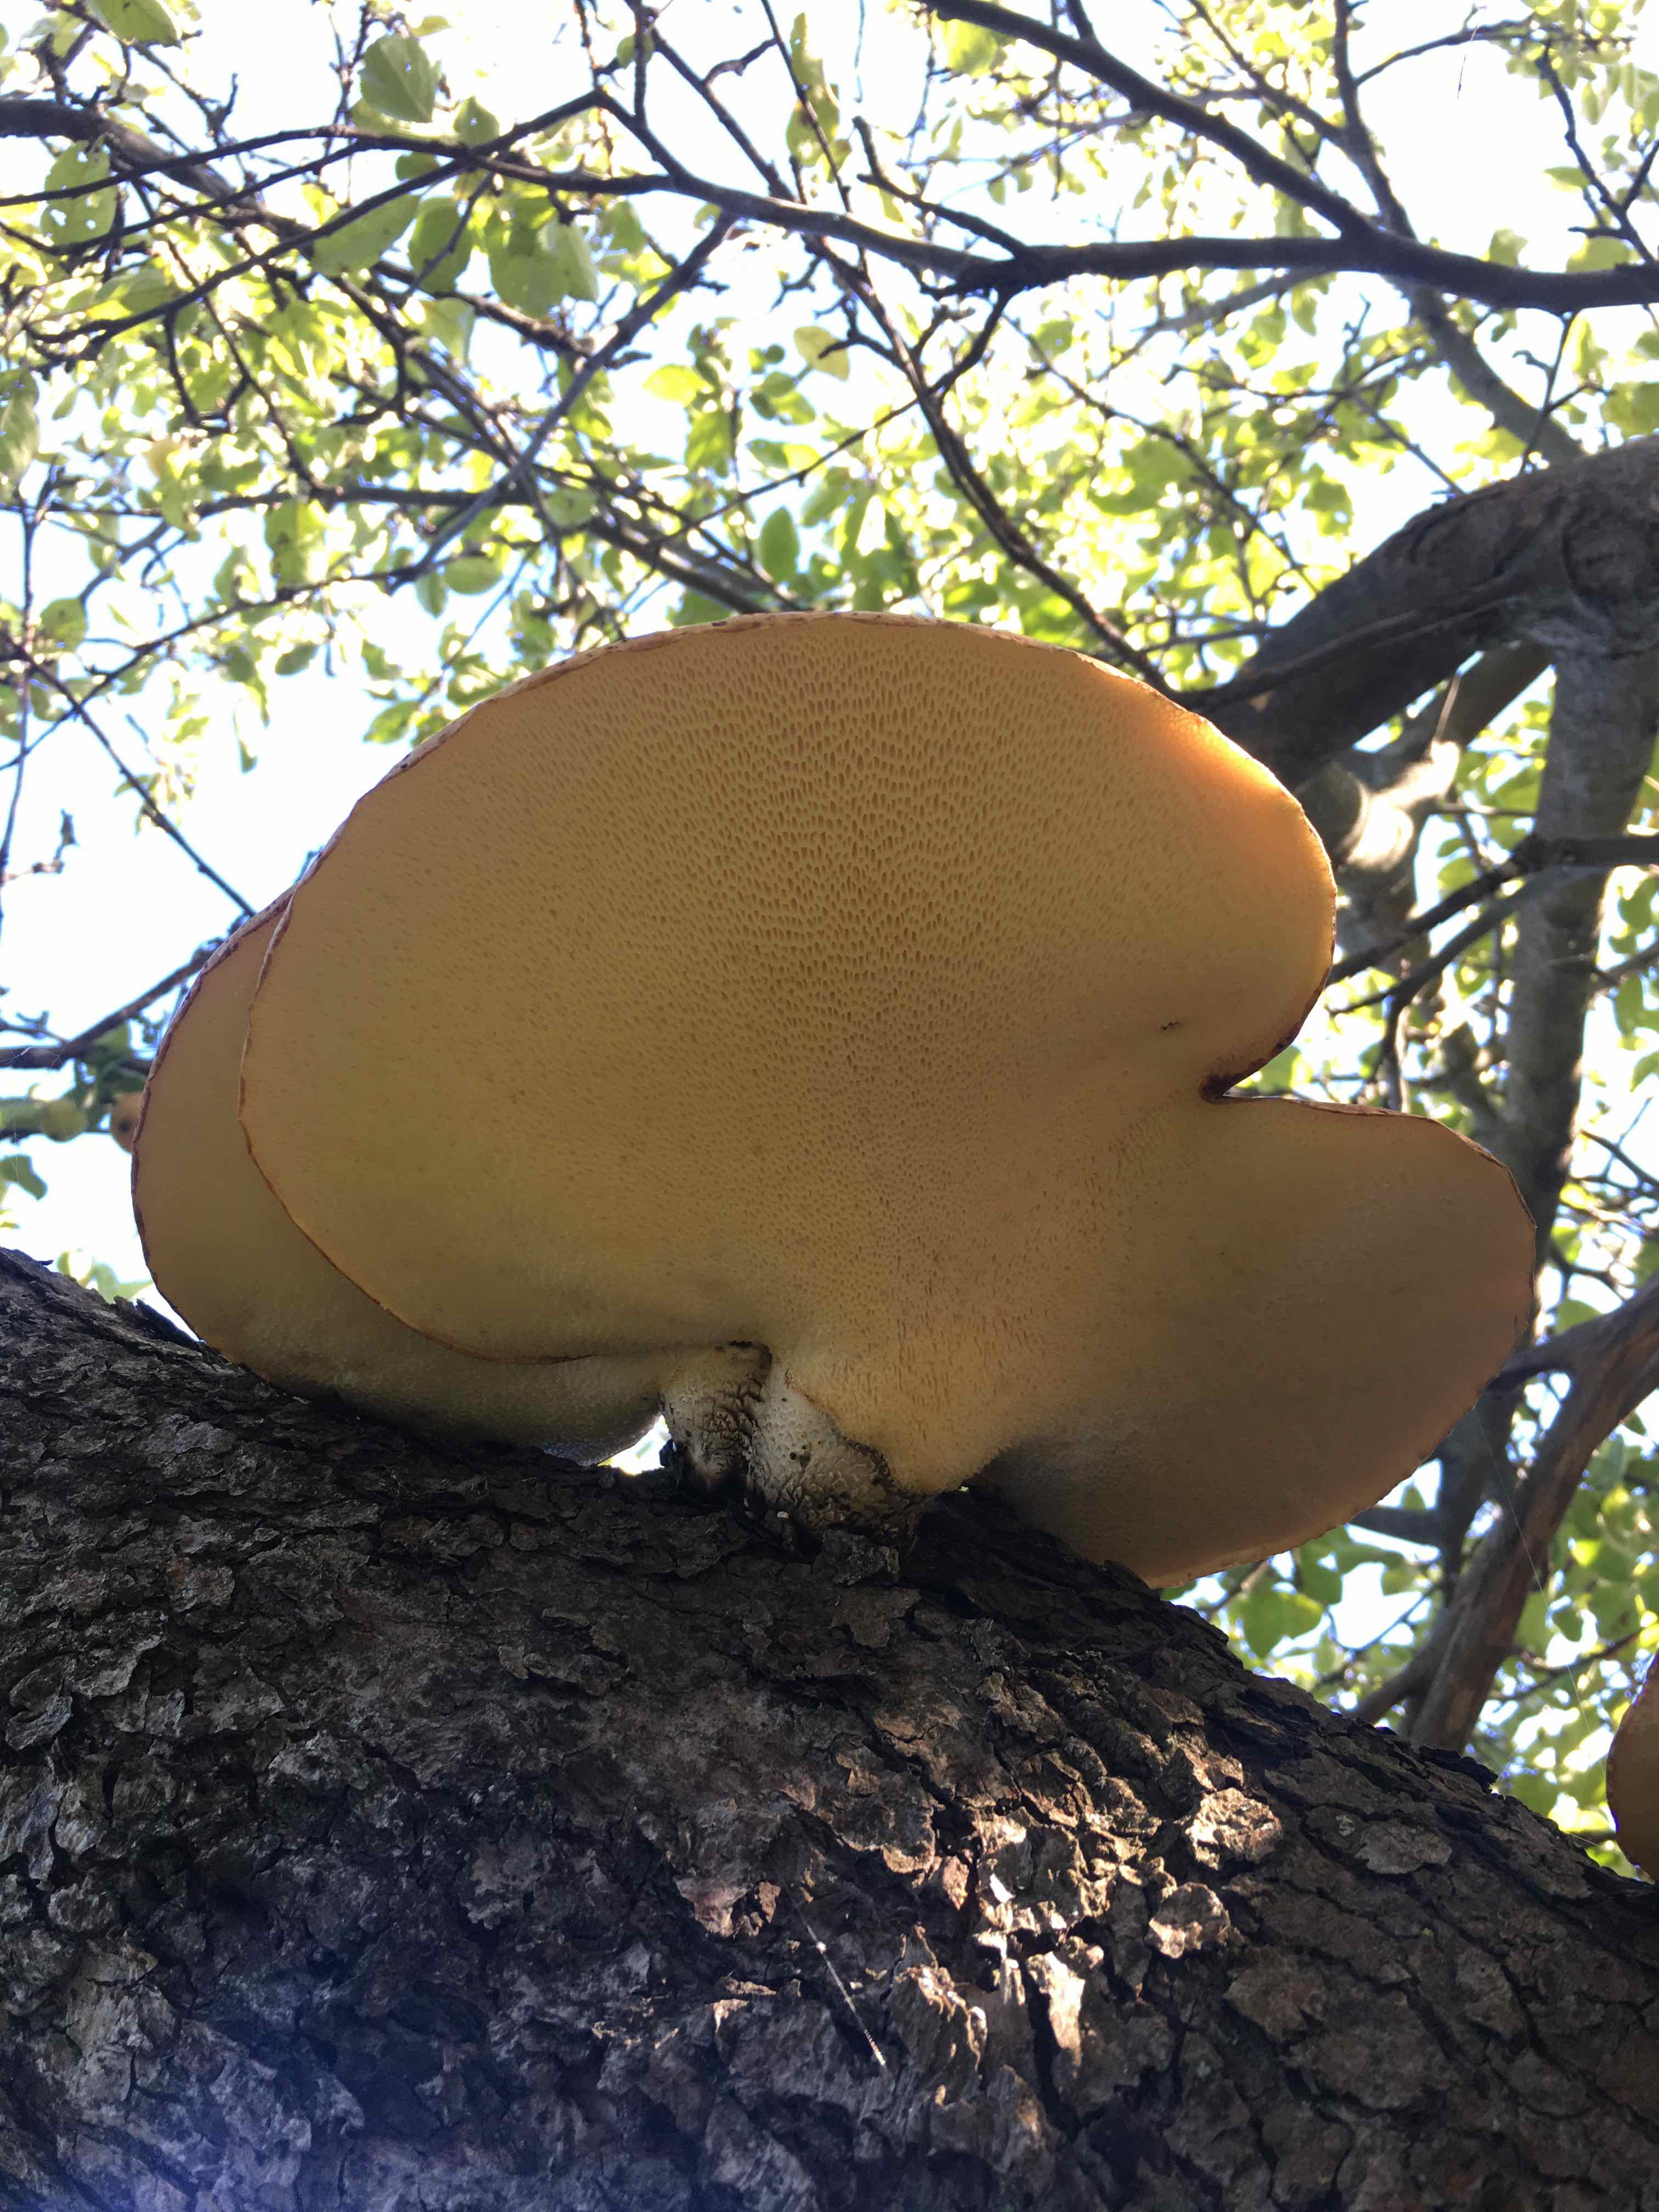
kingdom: Fungi
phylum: Basidiomycota
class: Agaricomycetes
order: Polyporales
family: Polyporaceae
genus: Cerioporus
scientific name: Cerioporus squamosus
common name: skællet stilkporesvamp
